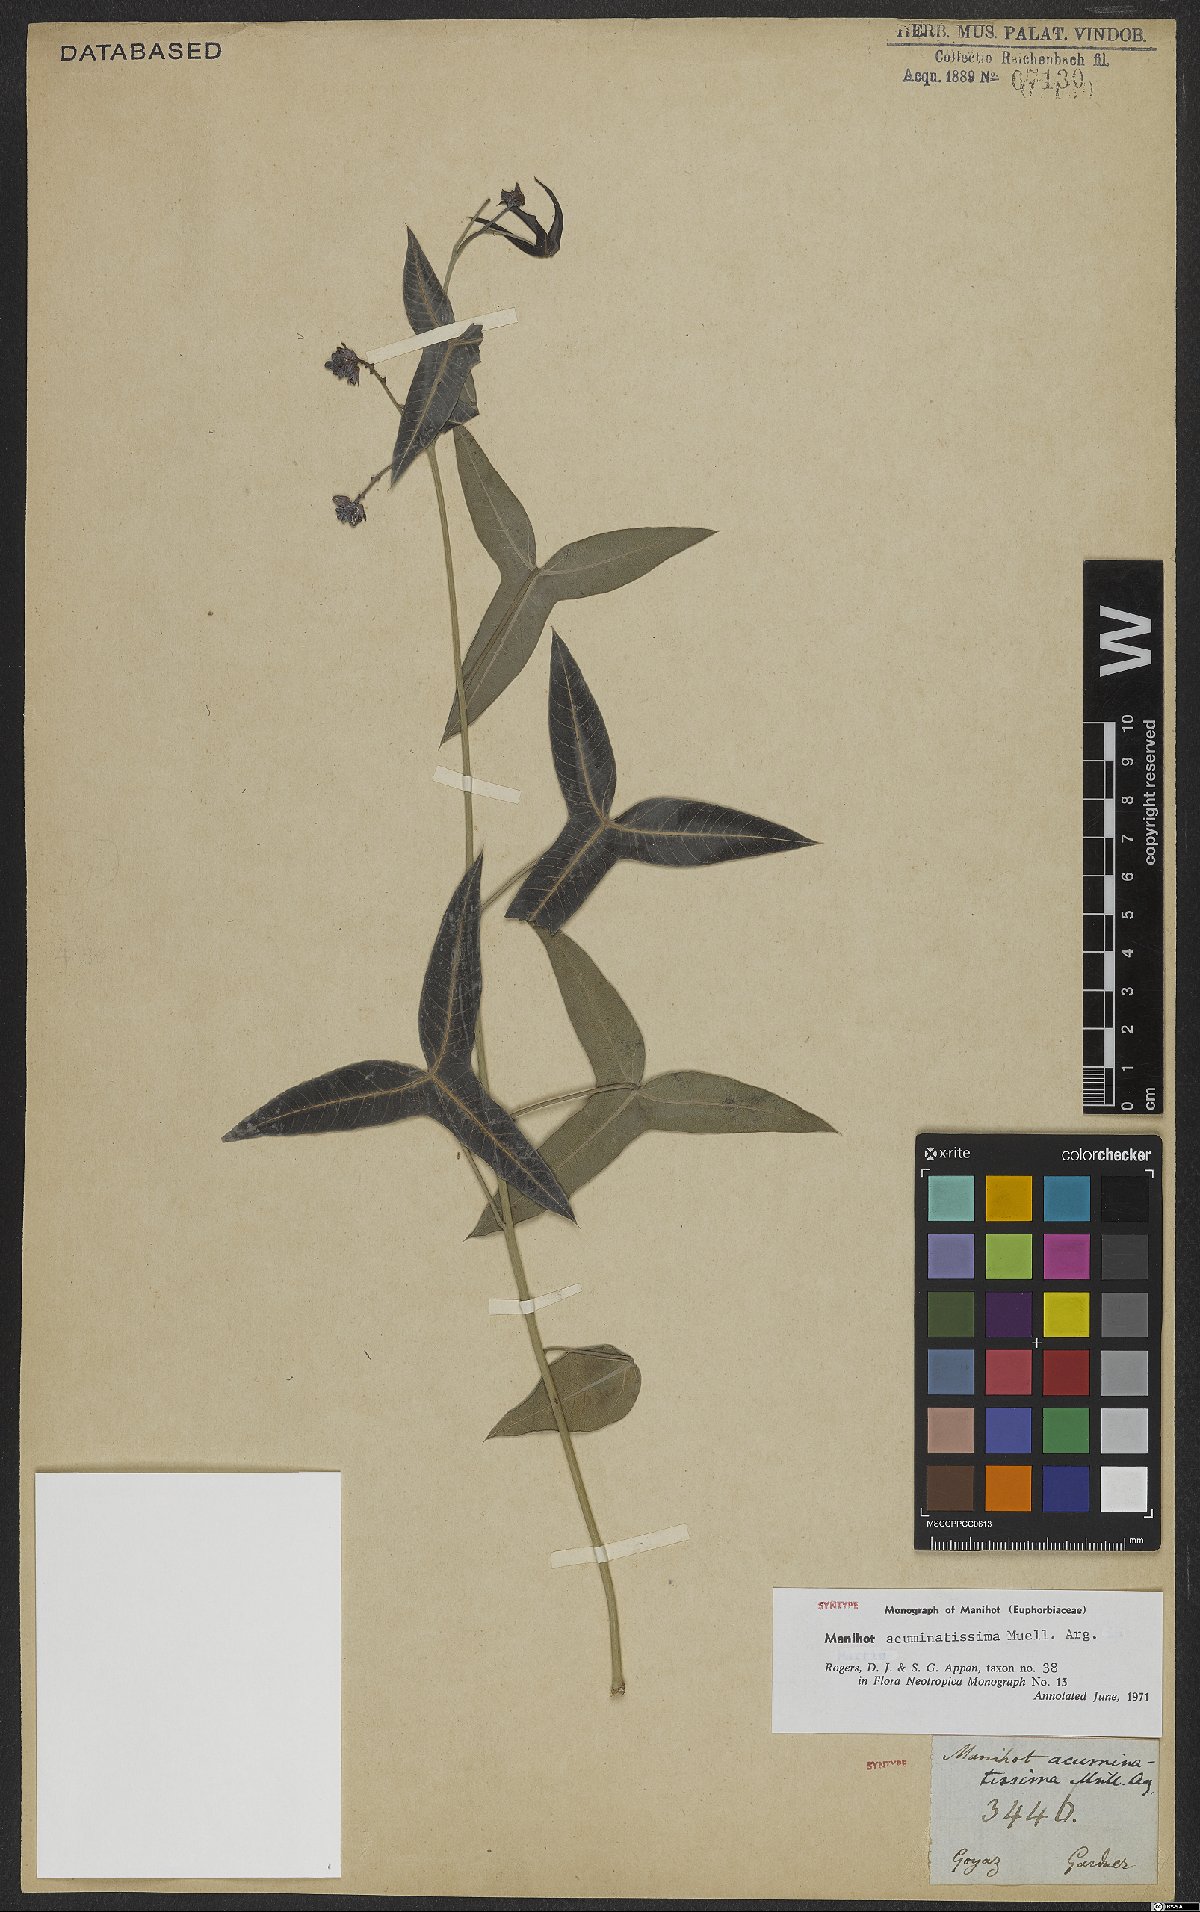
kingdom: Plantae
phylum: Tracheophyta
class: Magnoliopsida
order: Malpighiales
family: Euphorbiaceae
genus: Manihot
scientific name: Manihot acuminatissima
